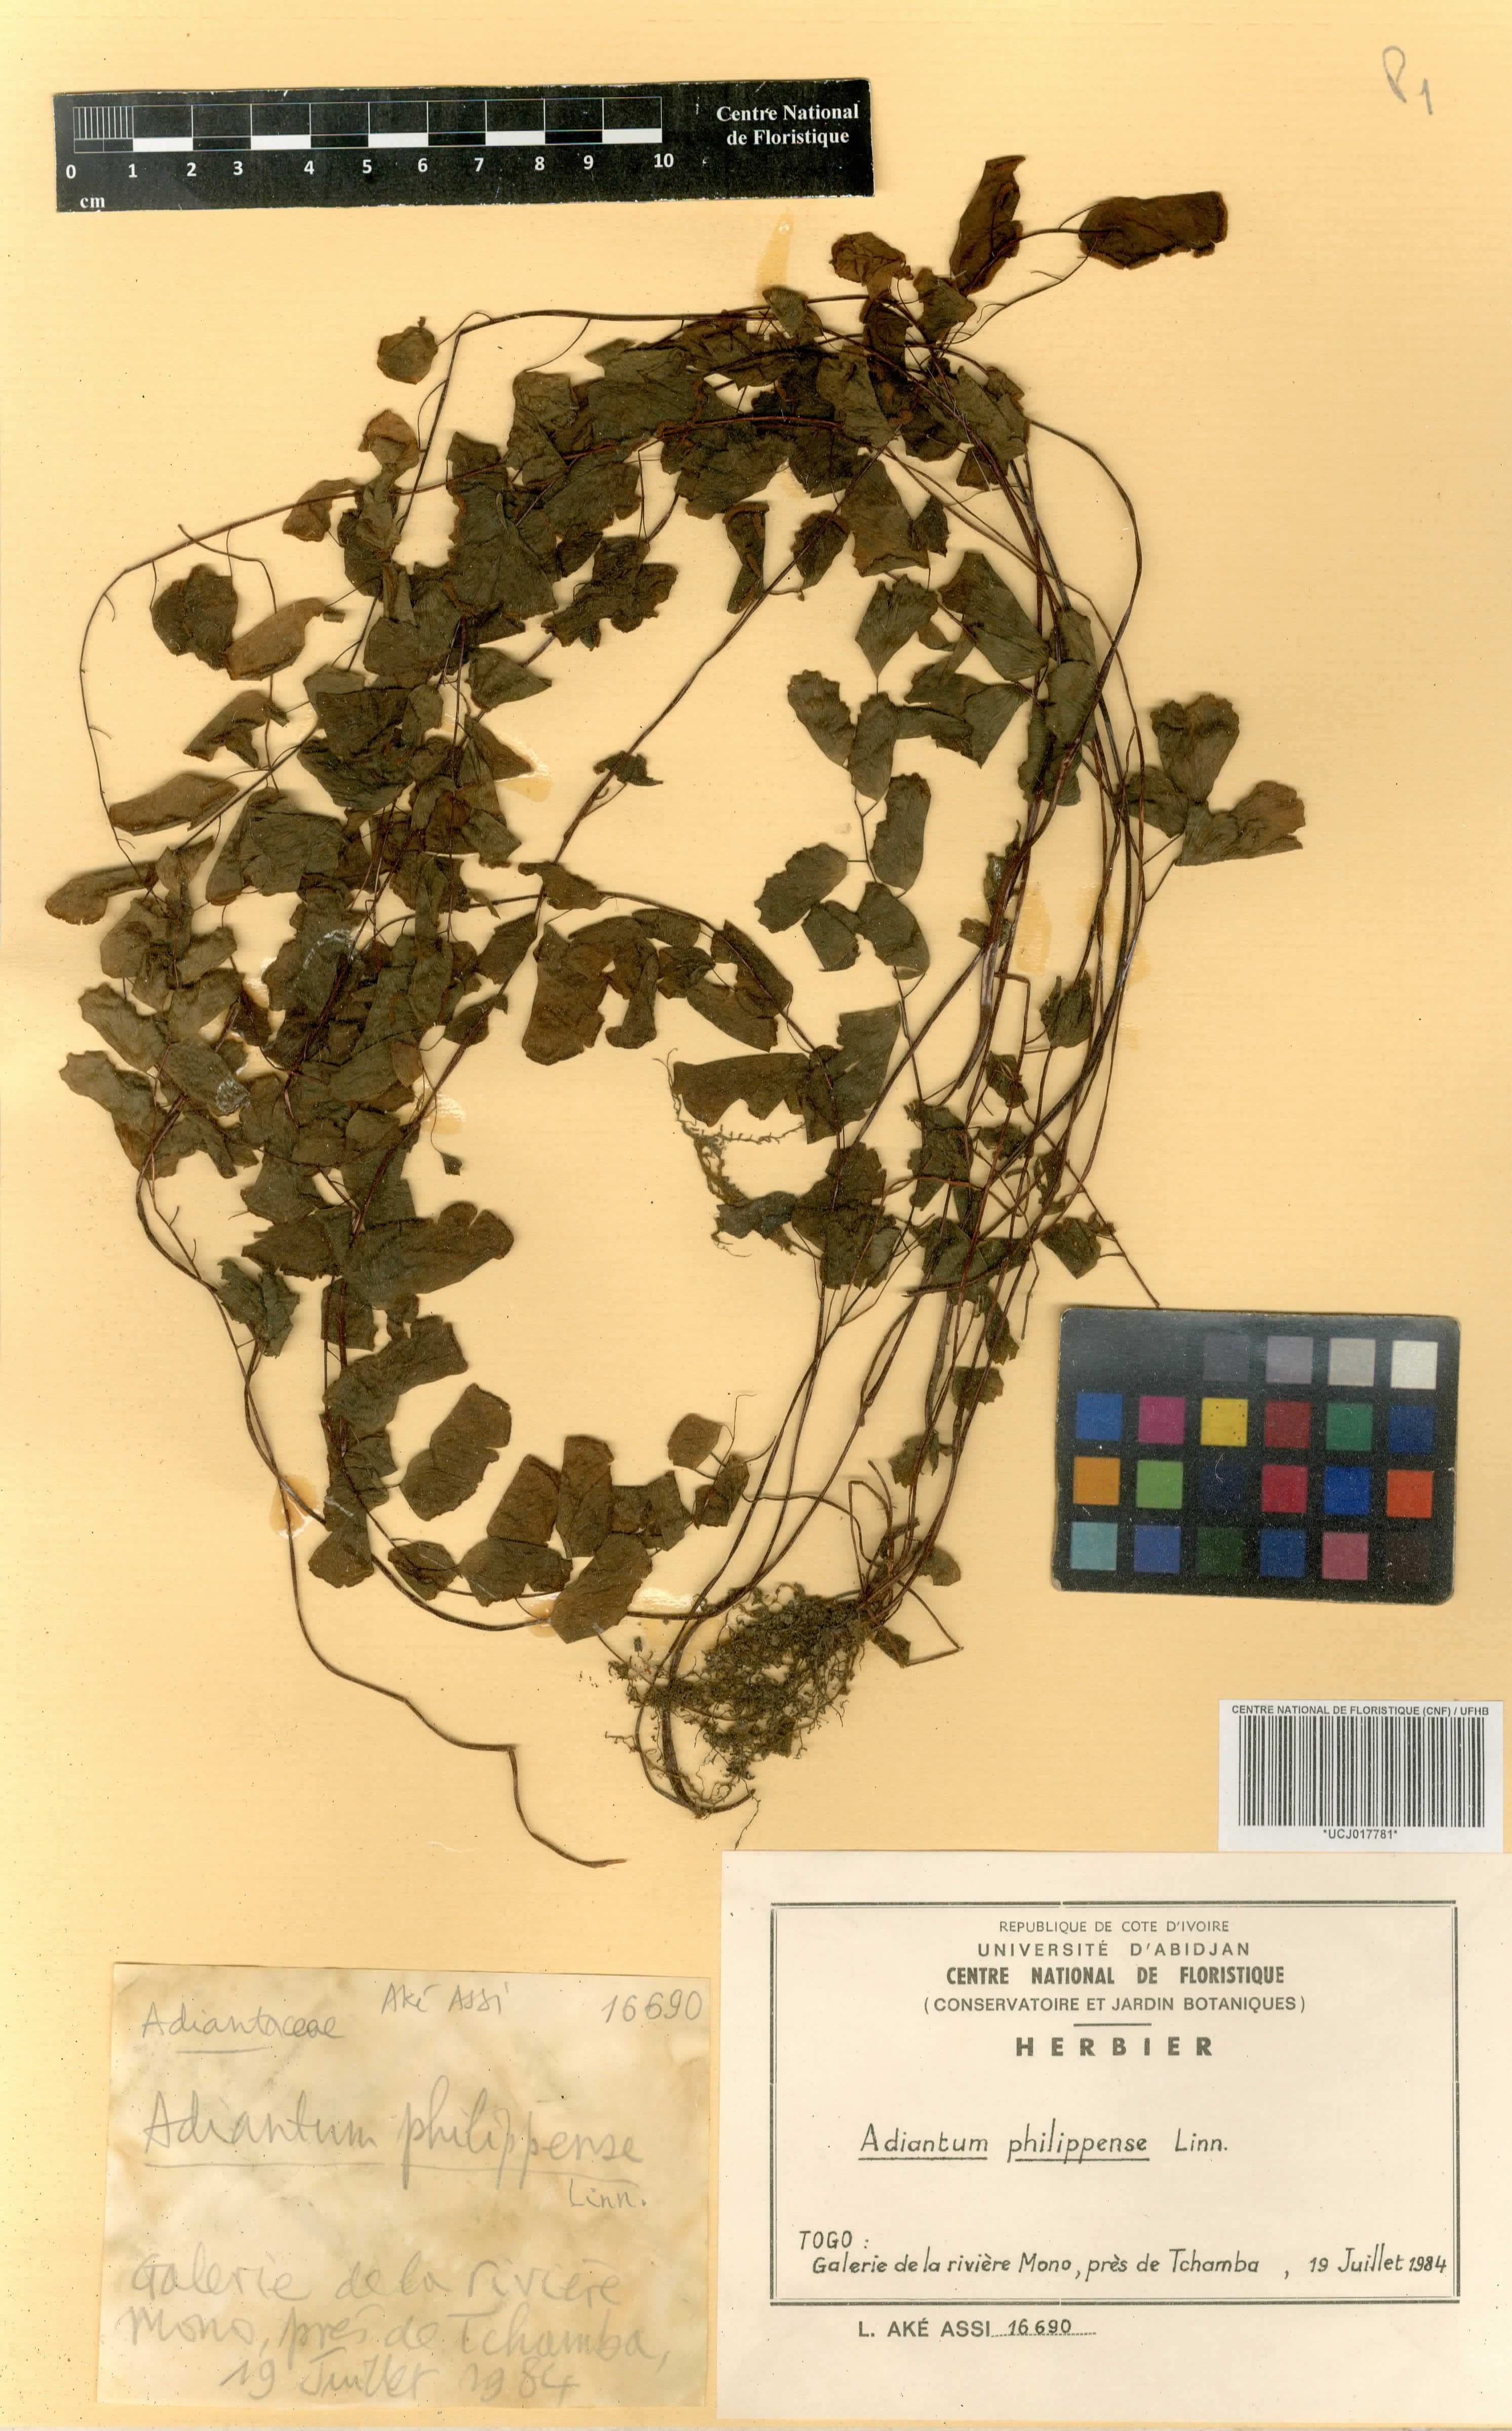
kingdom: Plantae
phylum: Tracheophyta
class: Polypodiopsida
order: Polypodiales
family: Pteridaceae
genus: Adiantum
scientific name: Adiantum philippense
